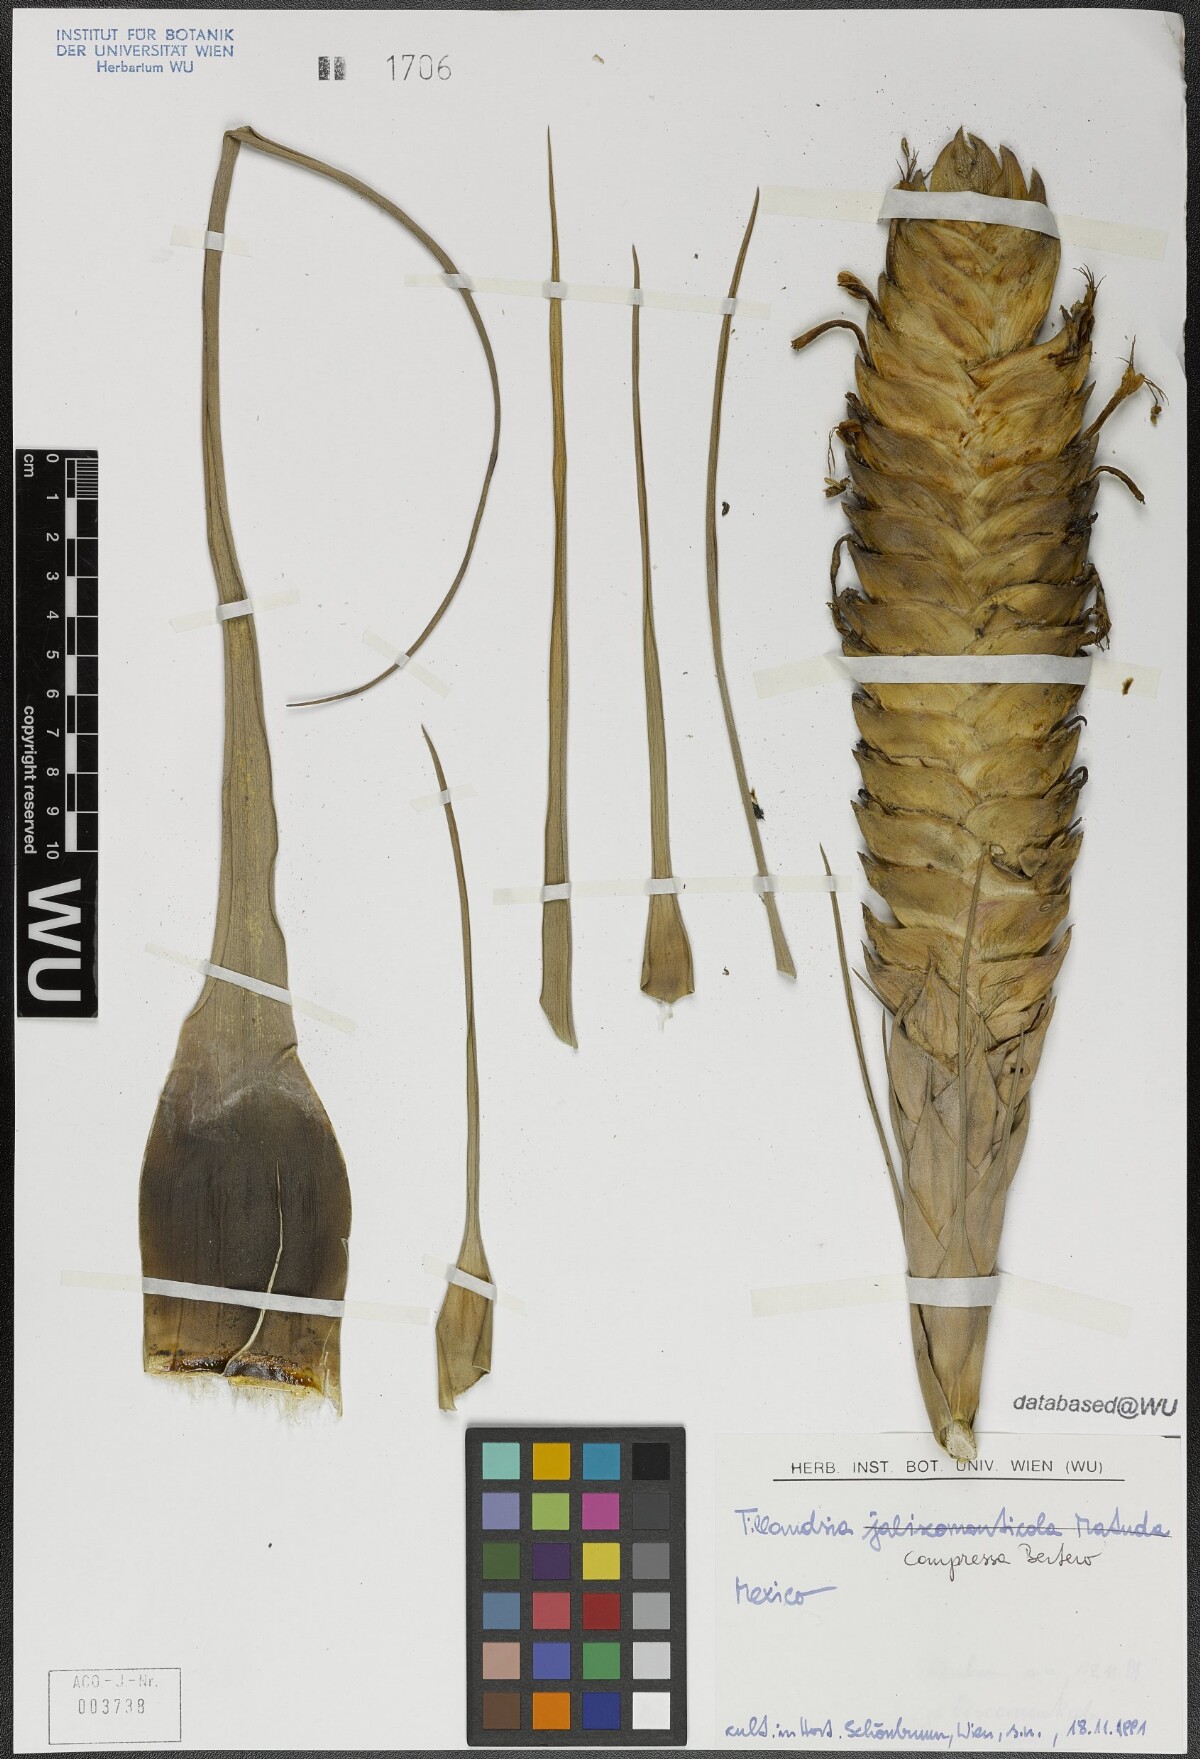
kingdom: Plantae
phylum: Tracheophyta
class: Liliopsida
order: Poales
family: Bromeliaceae
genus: Tillandsia
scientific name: Tillandsia compressa
